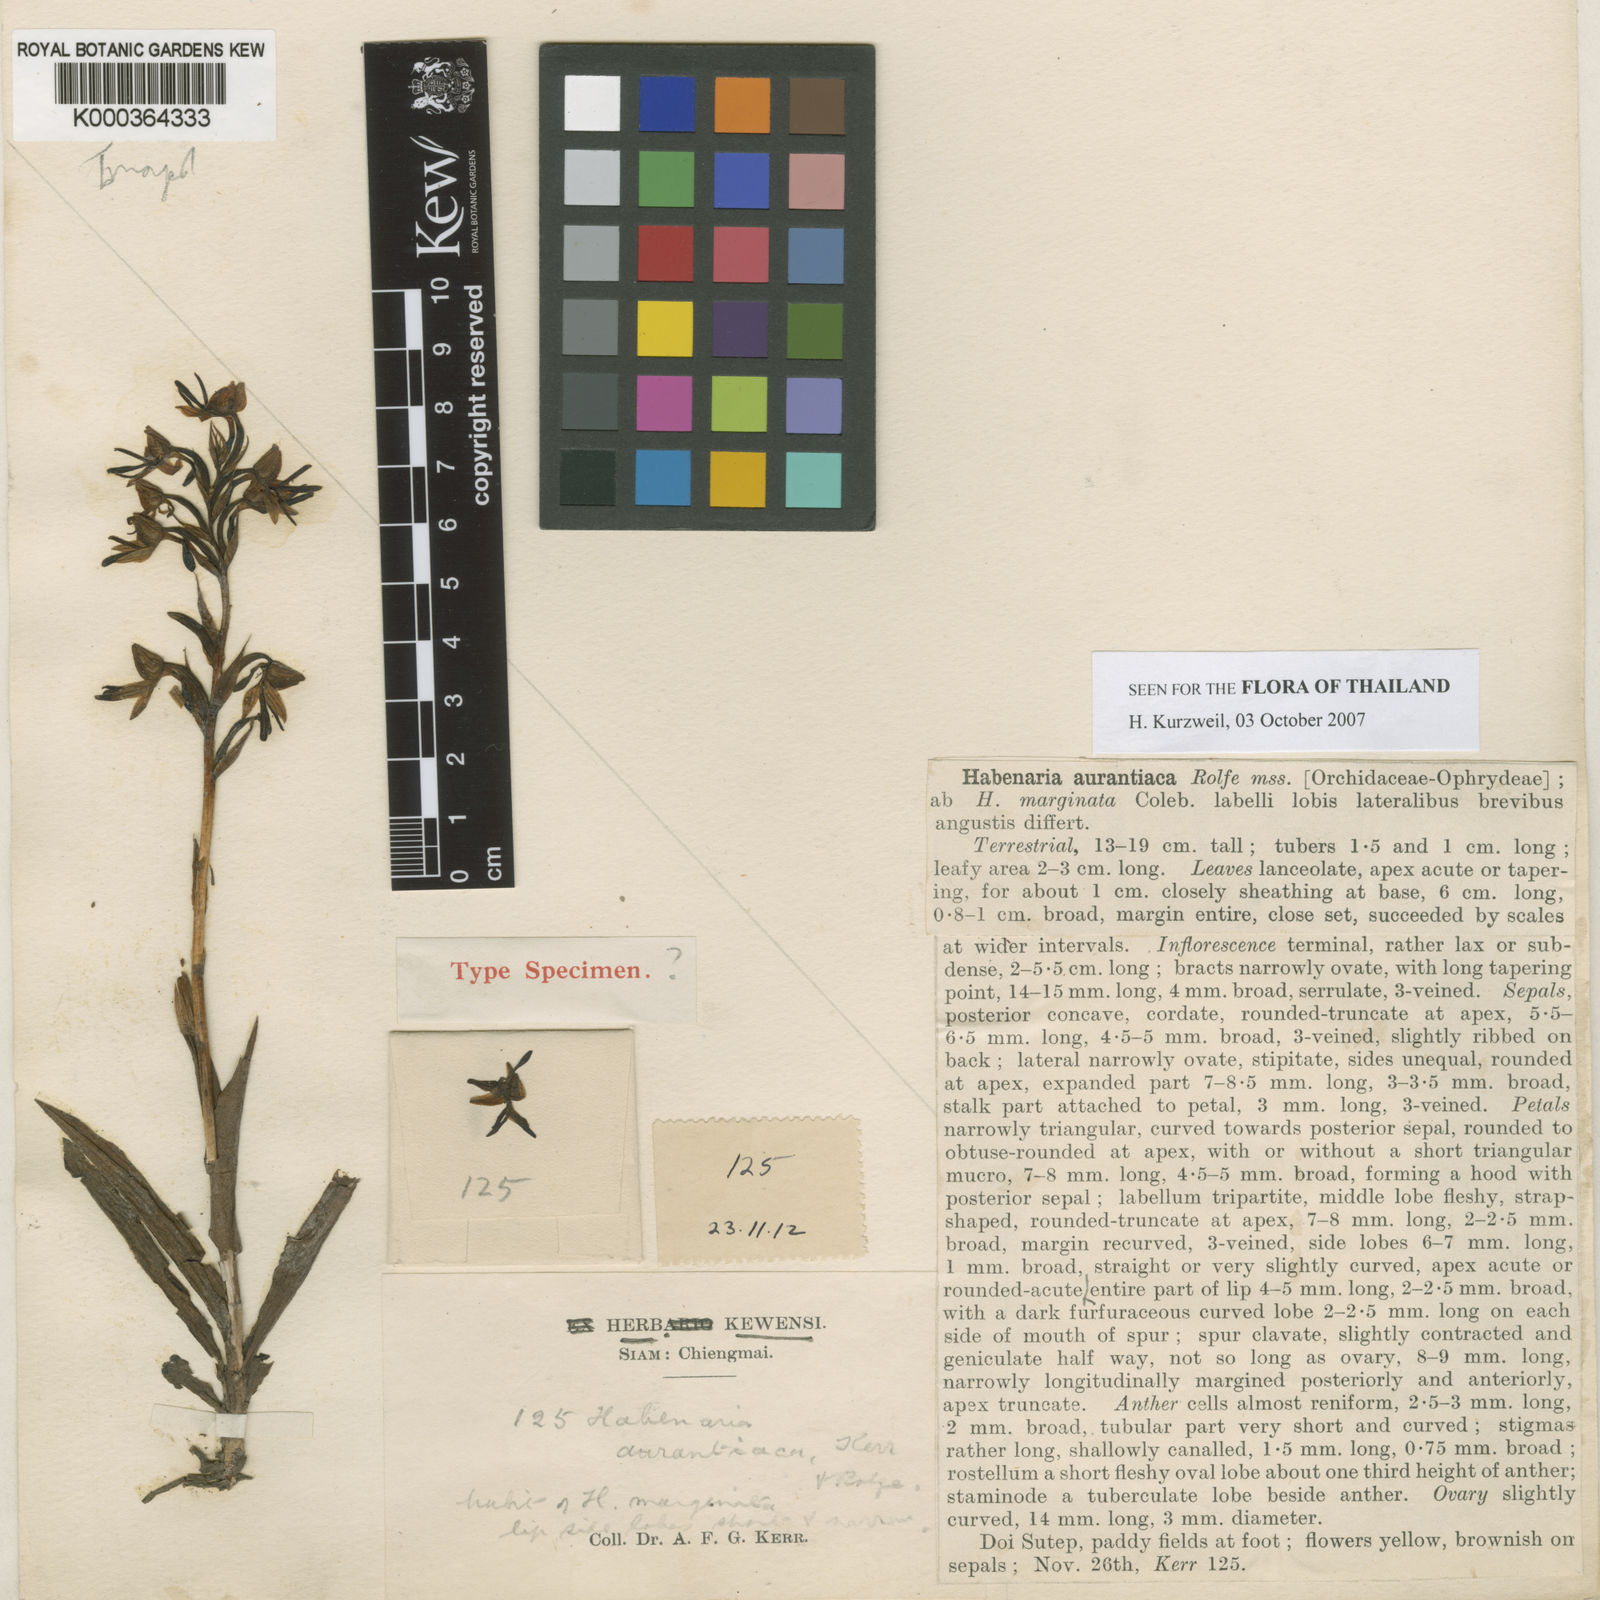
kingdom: Plantae
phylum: Tracheophyta
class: Liliopsida
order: Asparagales
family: Orchidaceae
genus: Habenaria
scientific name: Habenaria marginata
